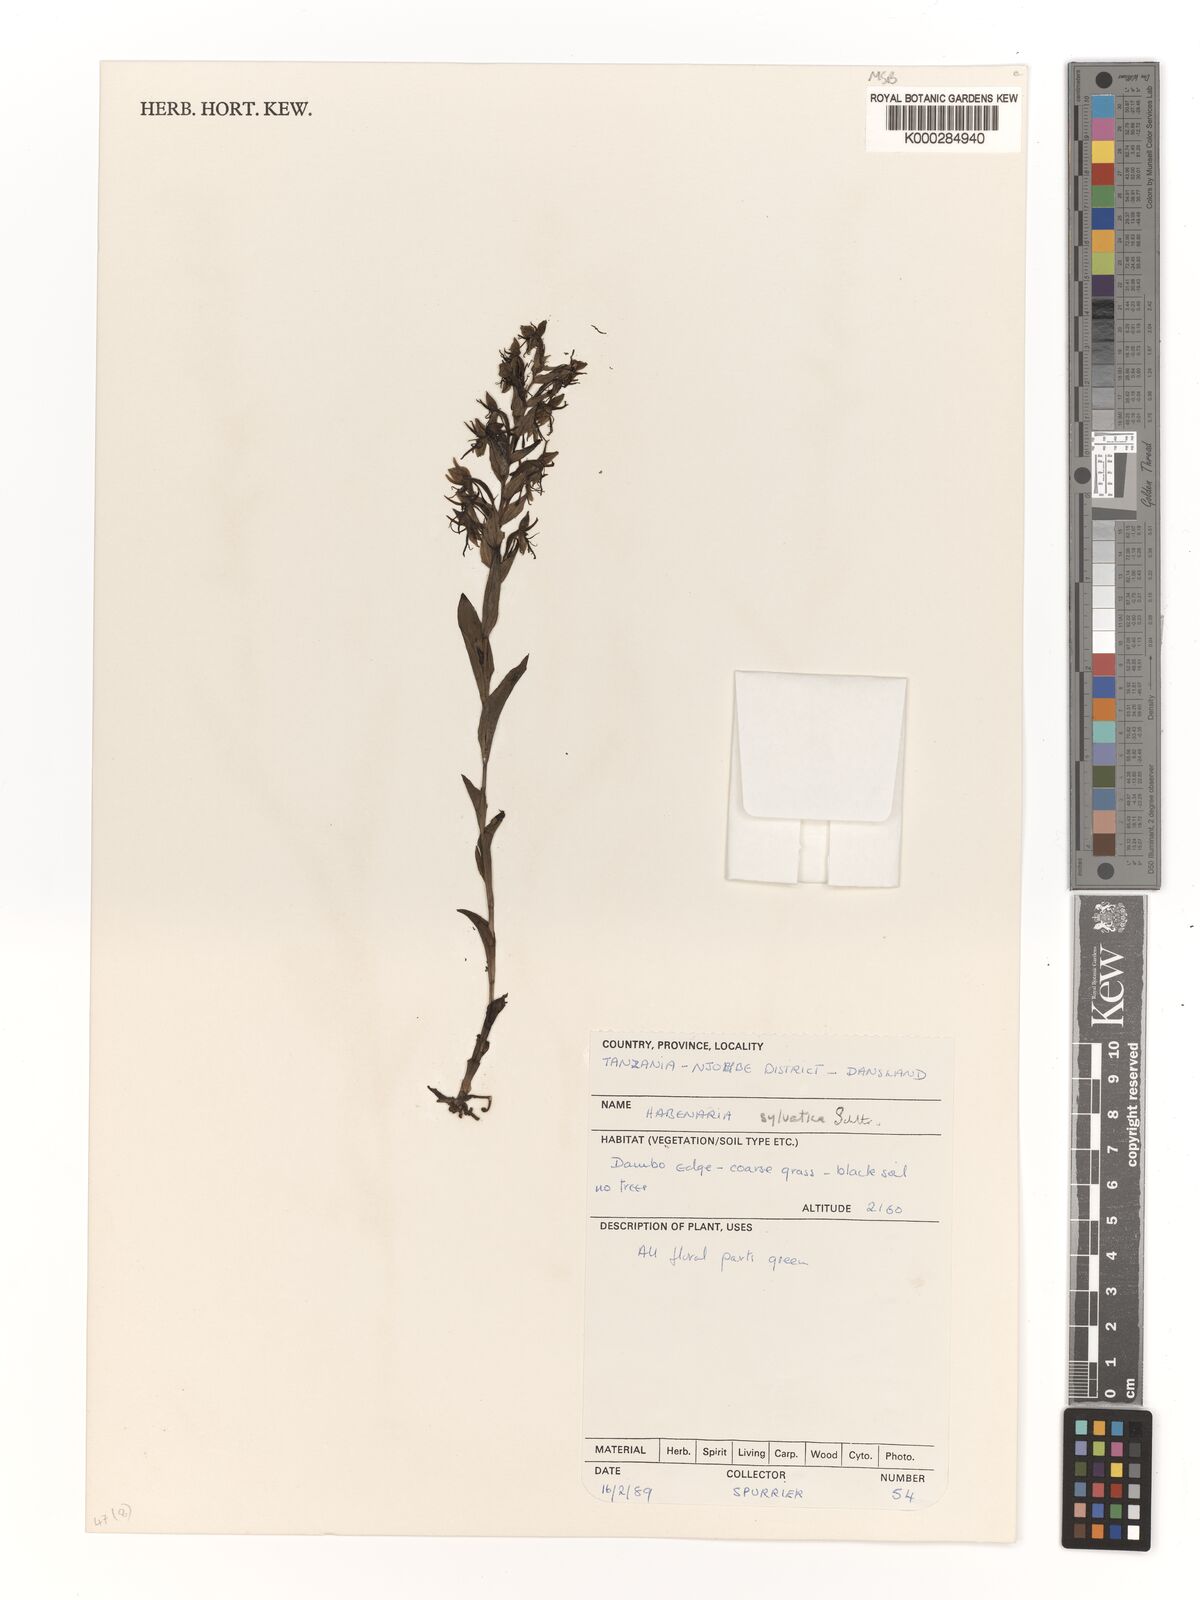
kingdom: Plantae
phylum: Tracheophyta
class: Liliopsida
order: Asparagales
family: Orchidaceae
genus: Habenaria
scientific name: Habenaria silvatica
